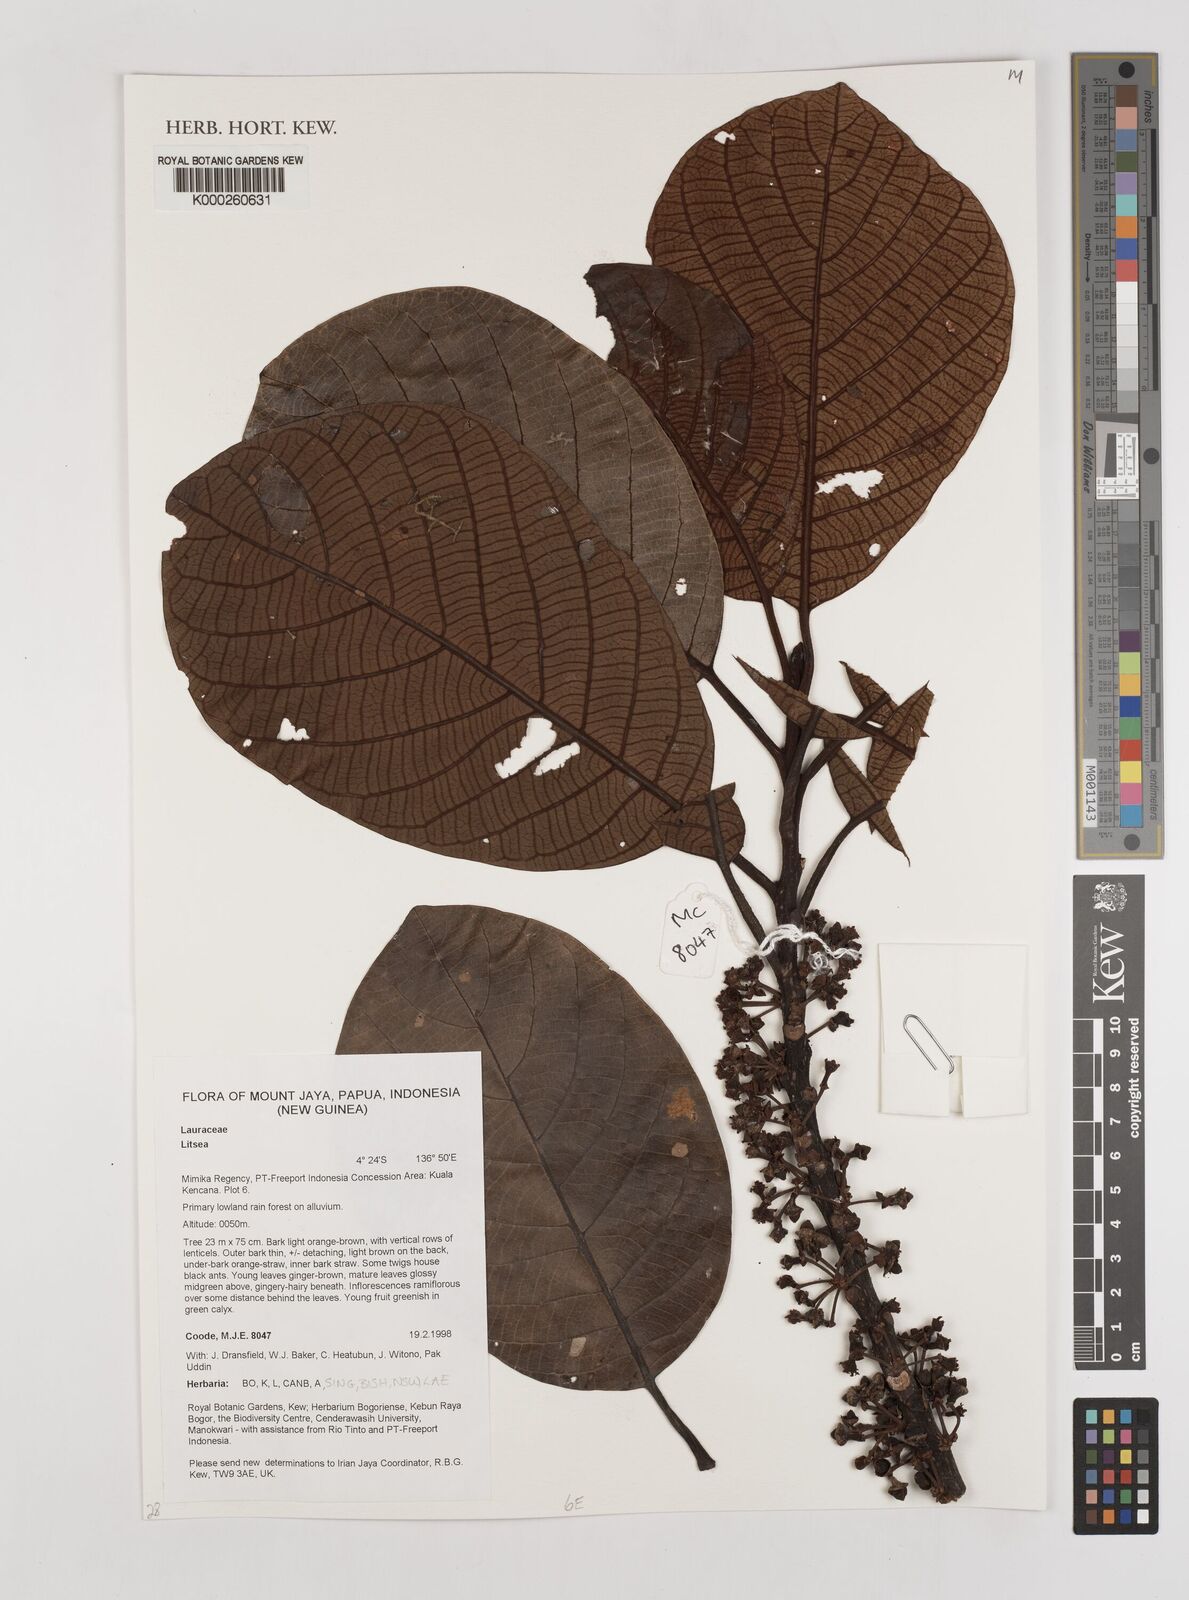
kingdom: Plantae
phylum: Tracheophyta
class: Magnoliopsida
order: Laurales
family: Lauraceae
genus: Litsea
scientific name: Litsea
